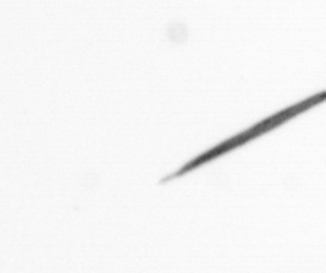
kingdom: Chromista
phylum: Ochrophyta
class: Bacillariophyceae
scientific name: Bacillariophyceae
